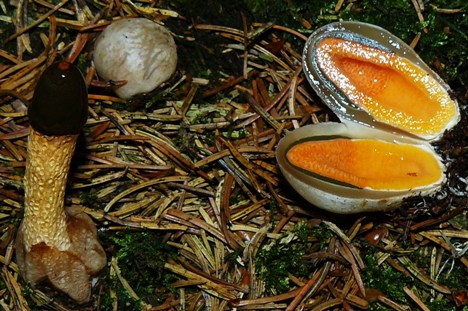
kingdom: Fungi
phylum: Basidiomycota
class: Agaricomycetes
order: Phallales
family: Phallaceae
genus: Mutinus
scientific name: Mutinus caninus
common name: hunde-stinksvamp
